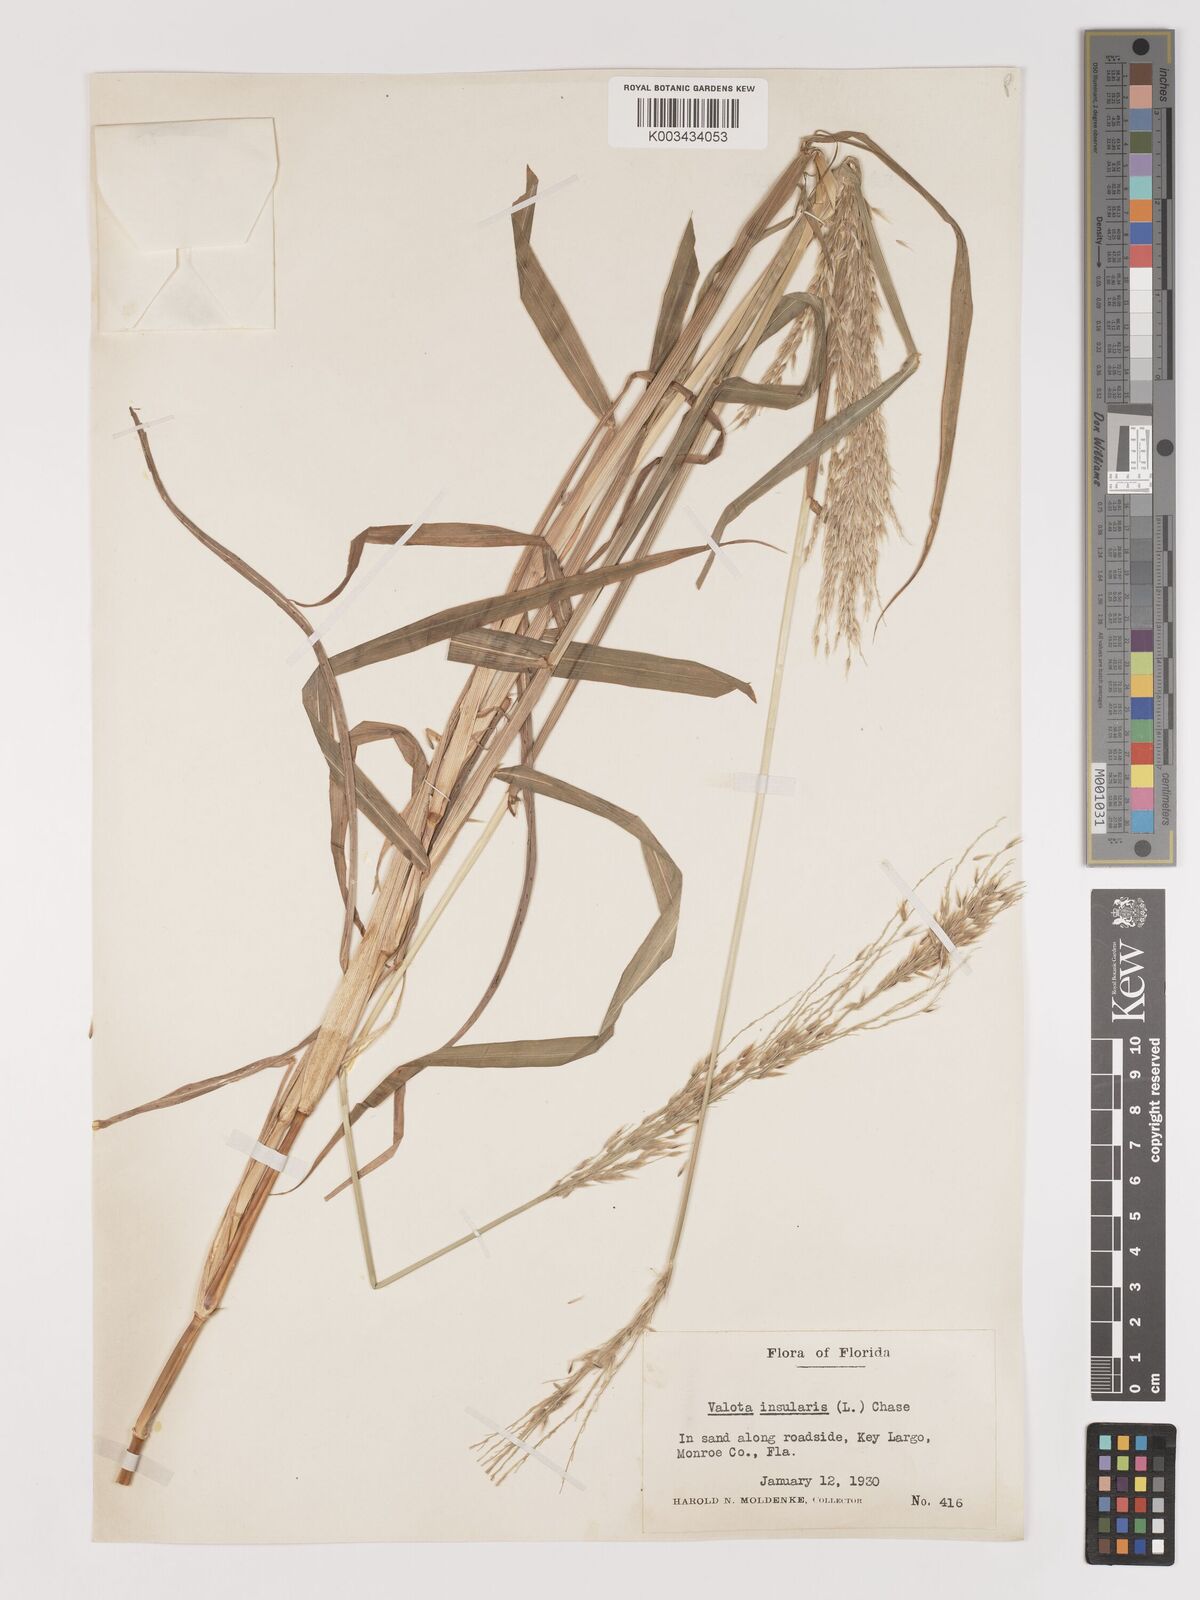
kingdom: Plantae
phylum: Tracheophyta
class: Liliopsida
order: Poales
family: Poaceae
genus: Digitaria
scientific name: Digitaria insularis
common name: Sourgrass
